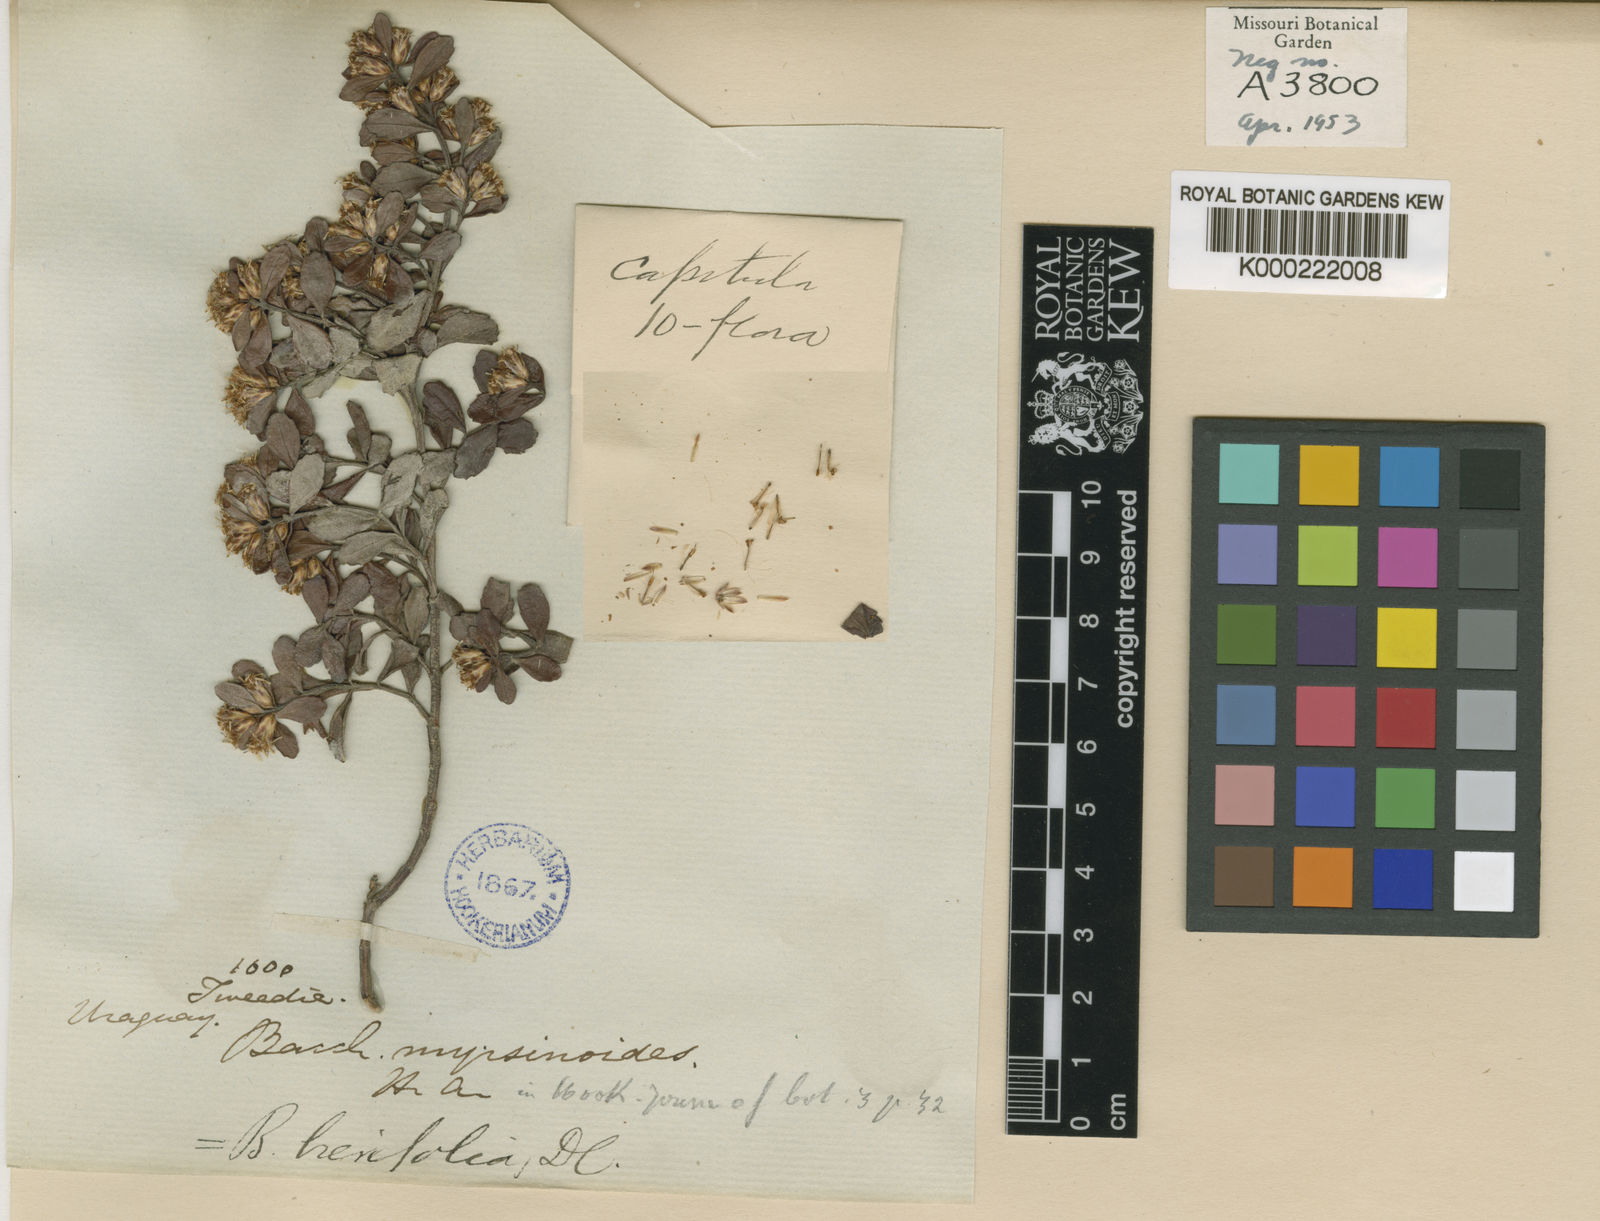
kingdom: Plantae
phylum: Tracheophyta
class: Magnoliopsida
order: Asterales
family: Asteraceae
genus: Baccharis
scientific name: Baccharis brevifolia
